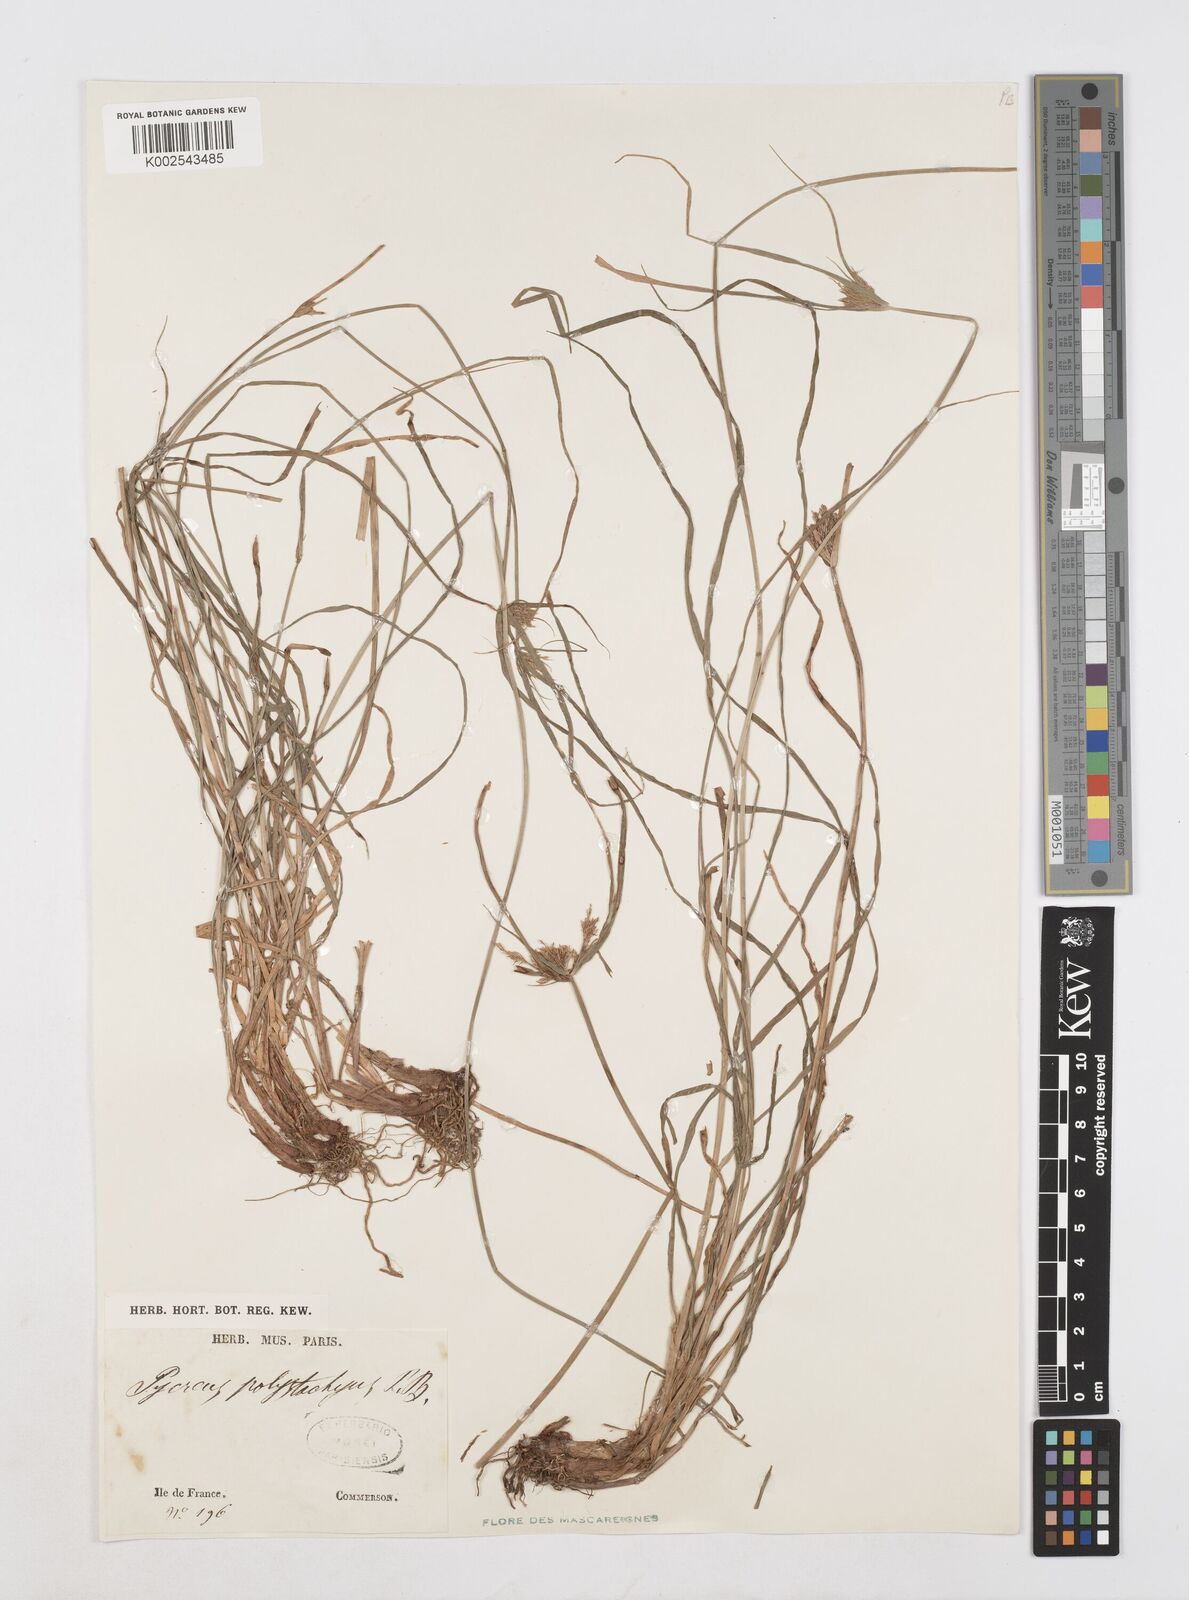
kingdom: Plantae
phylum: Tracheophyta
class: Liliopsida
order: Poales
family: Cyperaceae
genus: Cyperus
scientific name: Cyperus polystachyos
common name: Bunchy flat sedge
